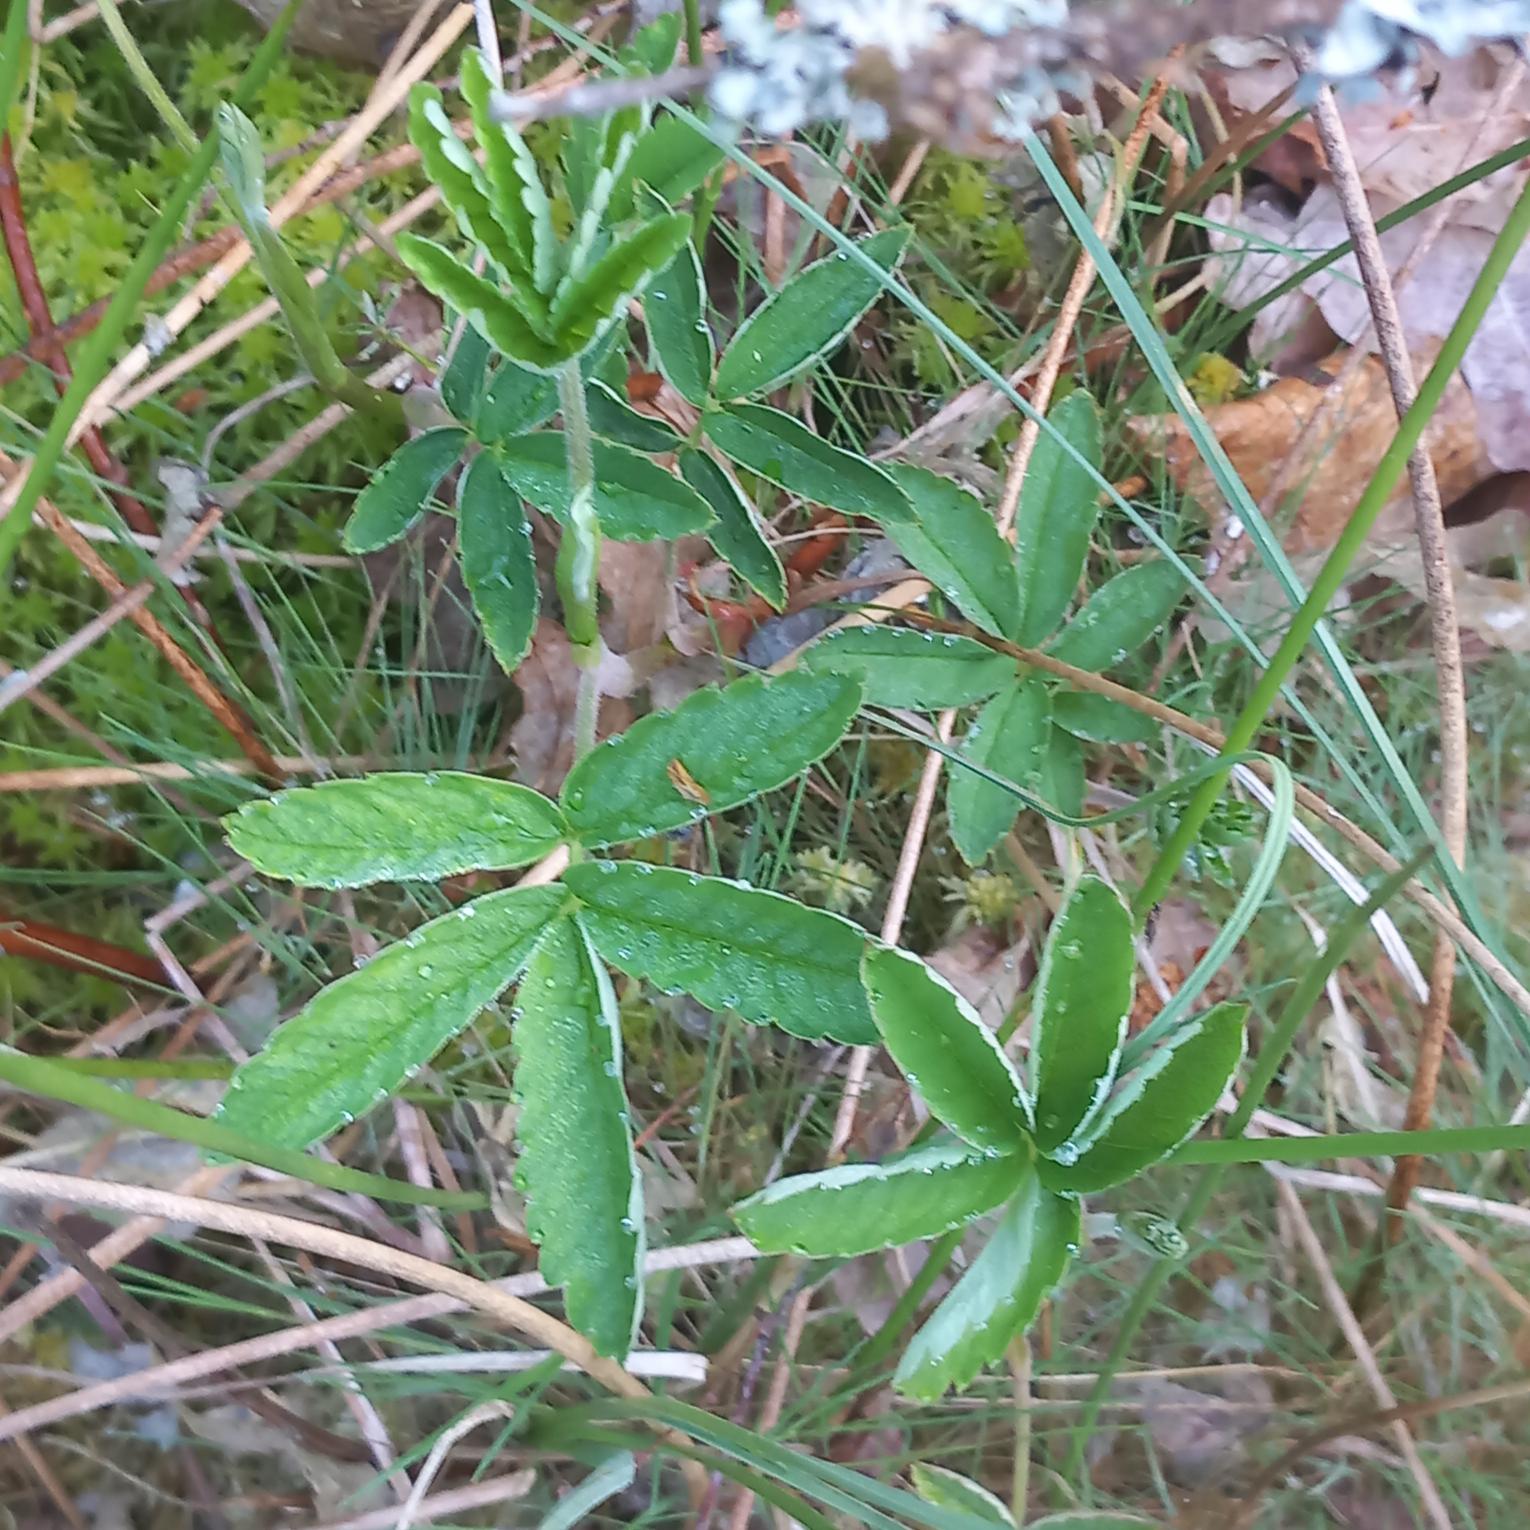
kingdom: Plantae
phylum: Tracheophyta
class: Magnoliopsida
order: Rosales
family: Rosaceae
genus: Comarum
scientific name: Comarum palustre
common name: Kragefod
